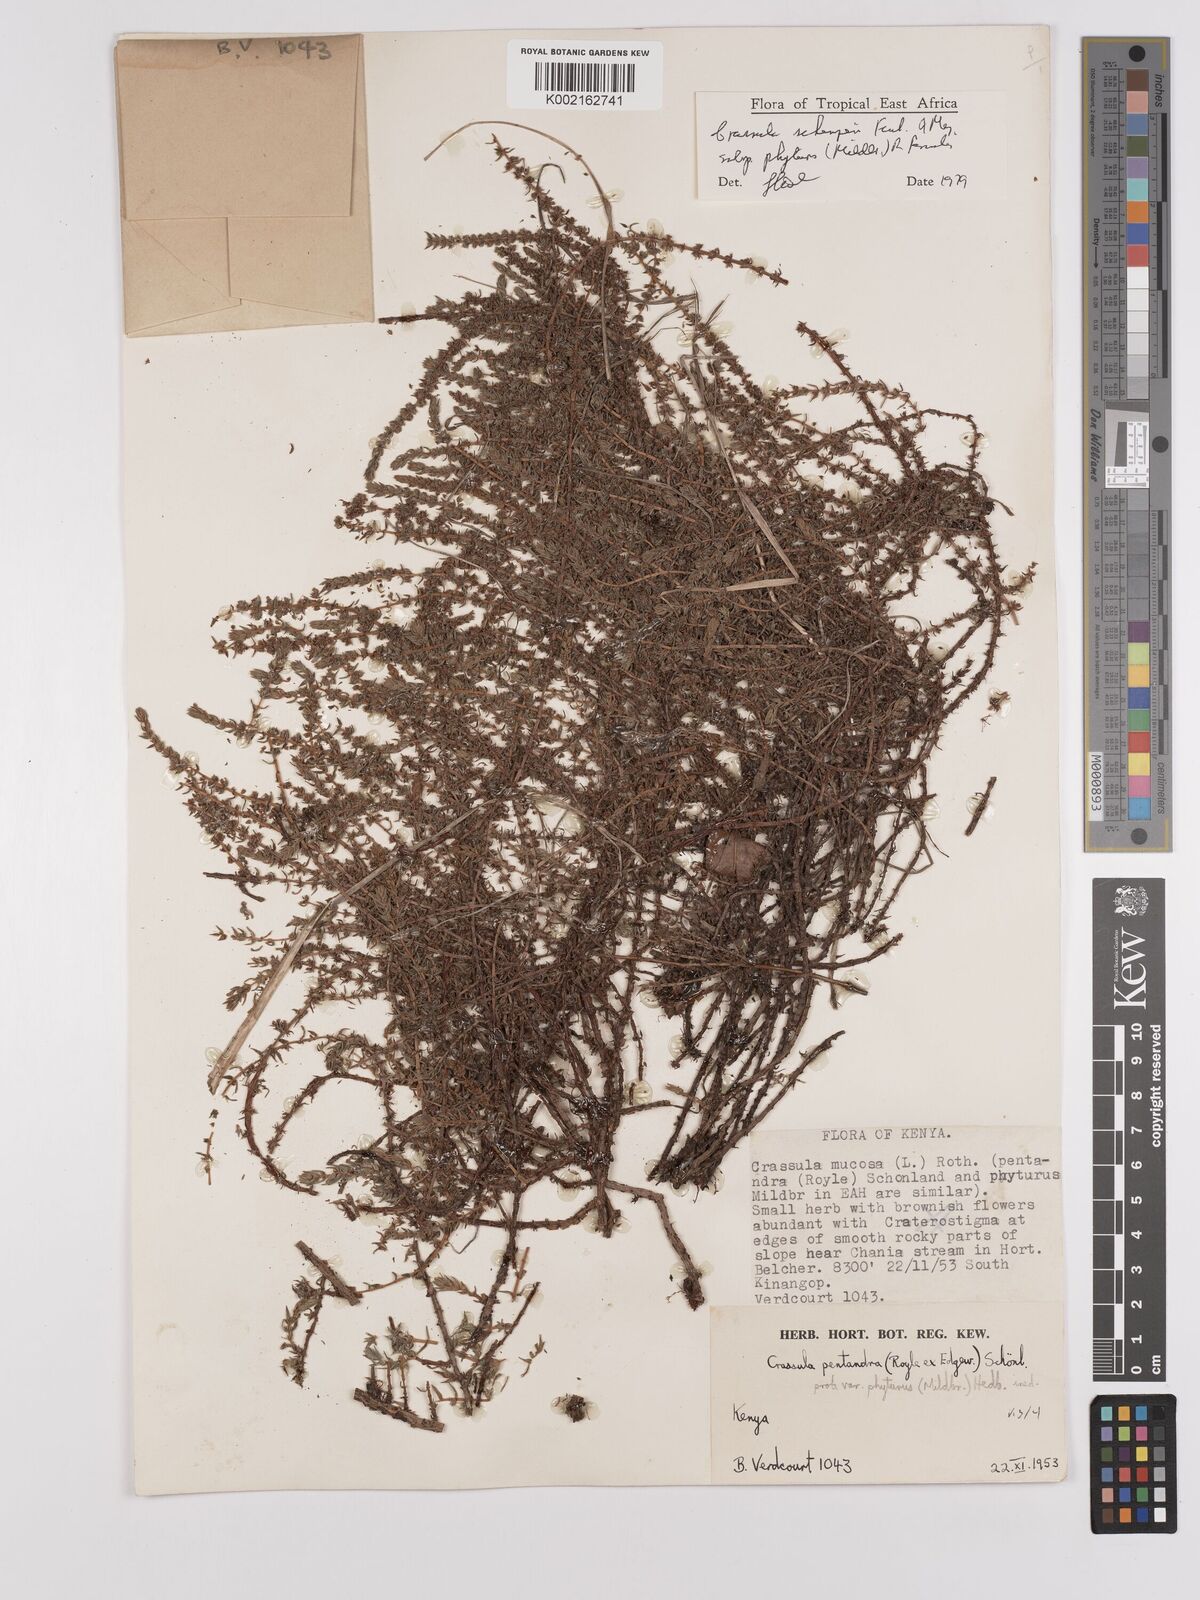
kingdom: Plantae
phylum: Tracheophyta
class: Magnoliopsida
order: Saxifragales
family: Crassulaceae
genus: Crassula
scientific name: Crassula schimperi
